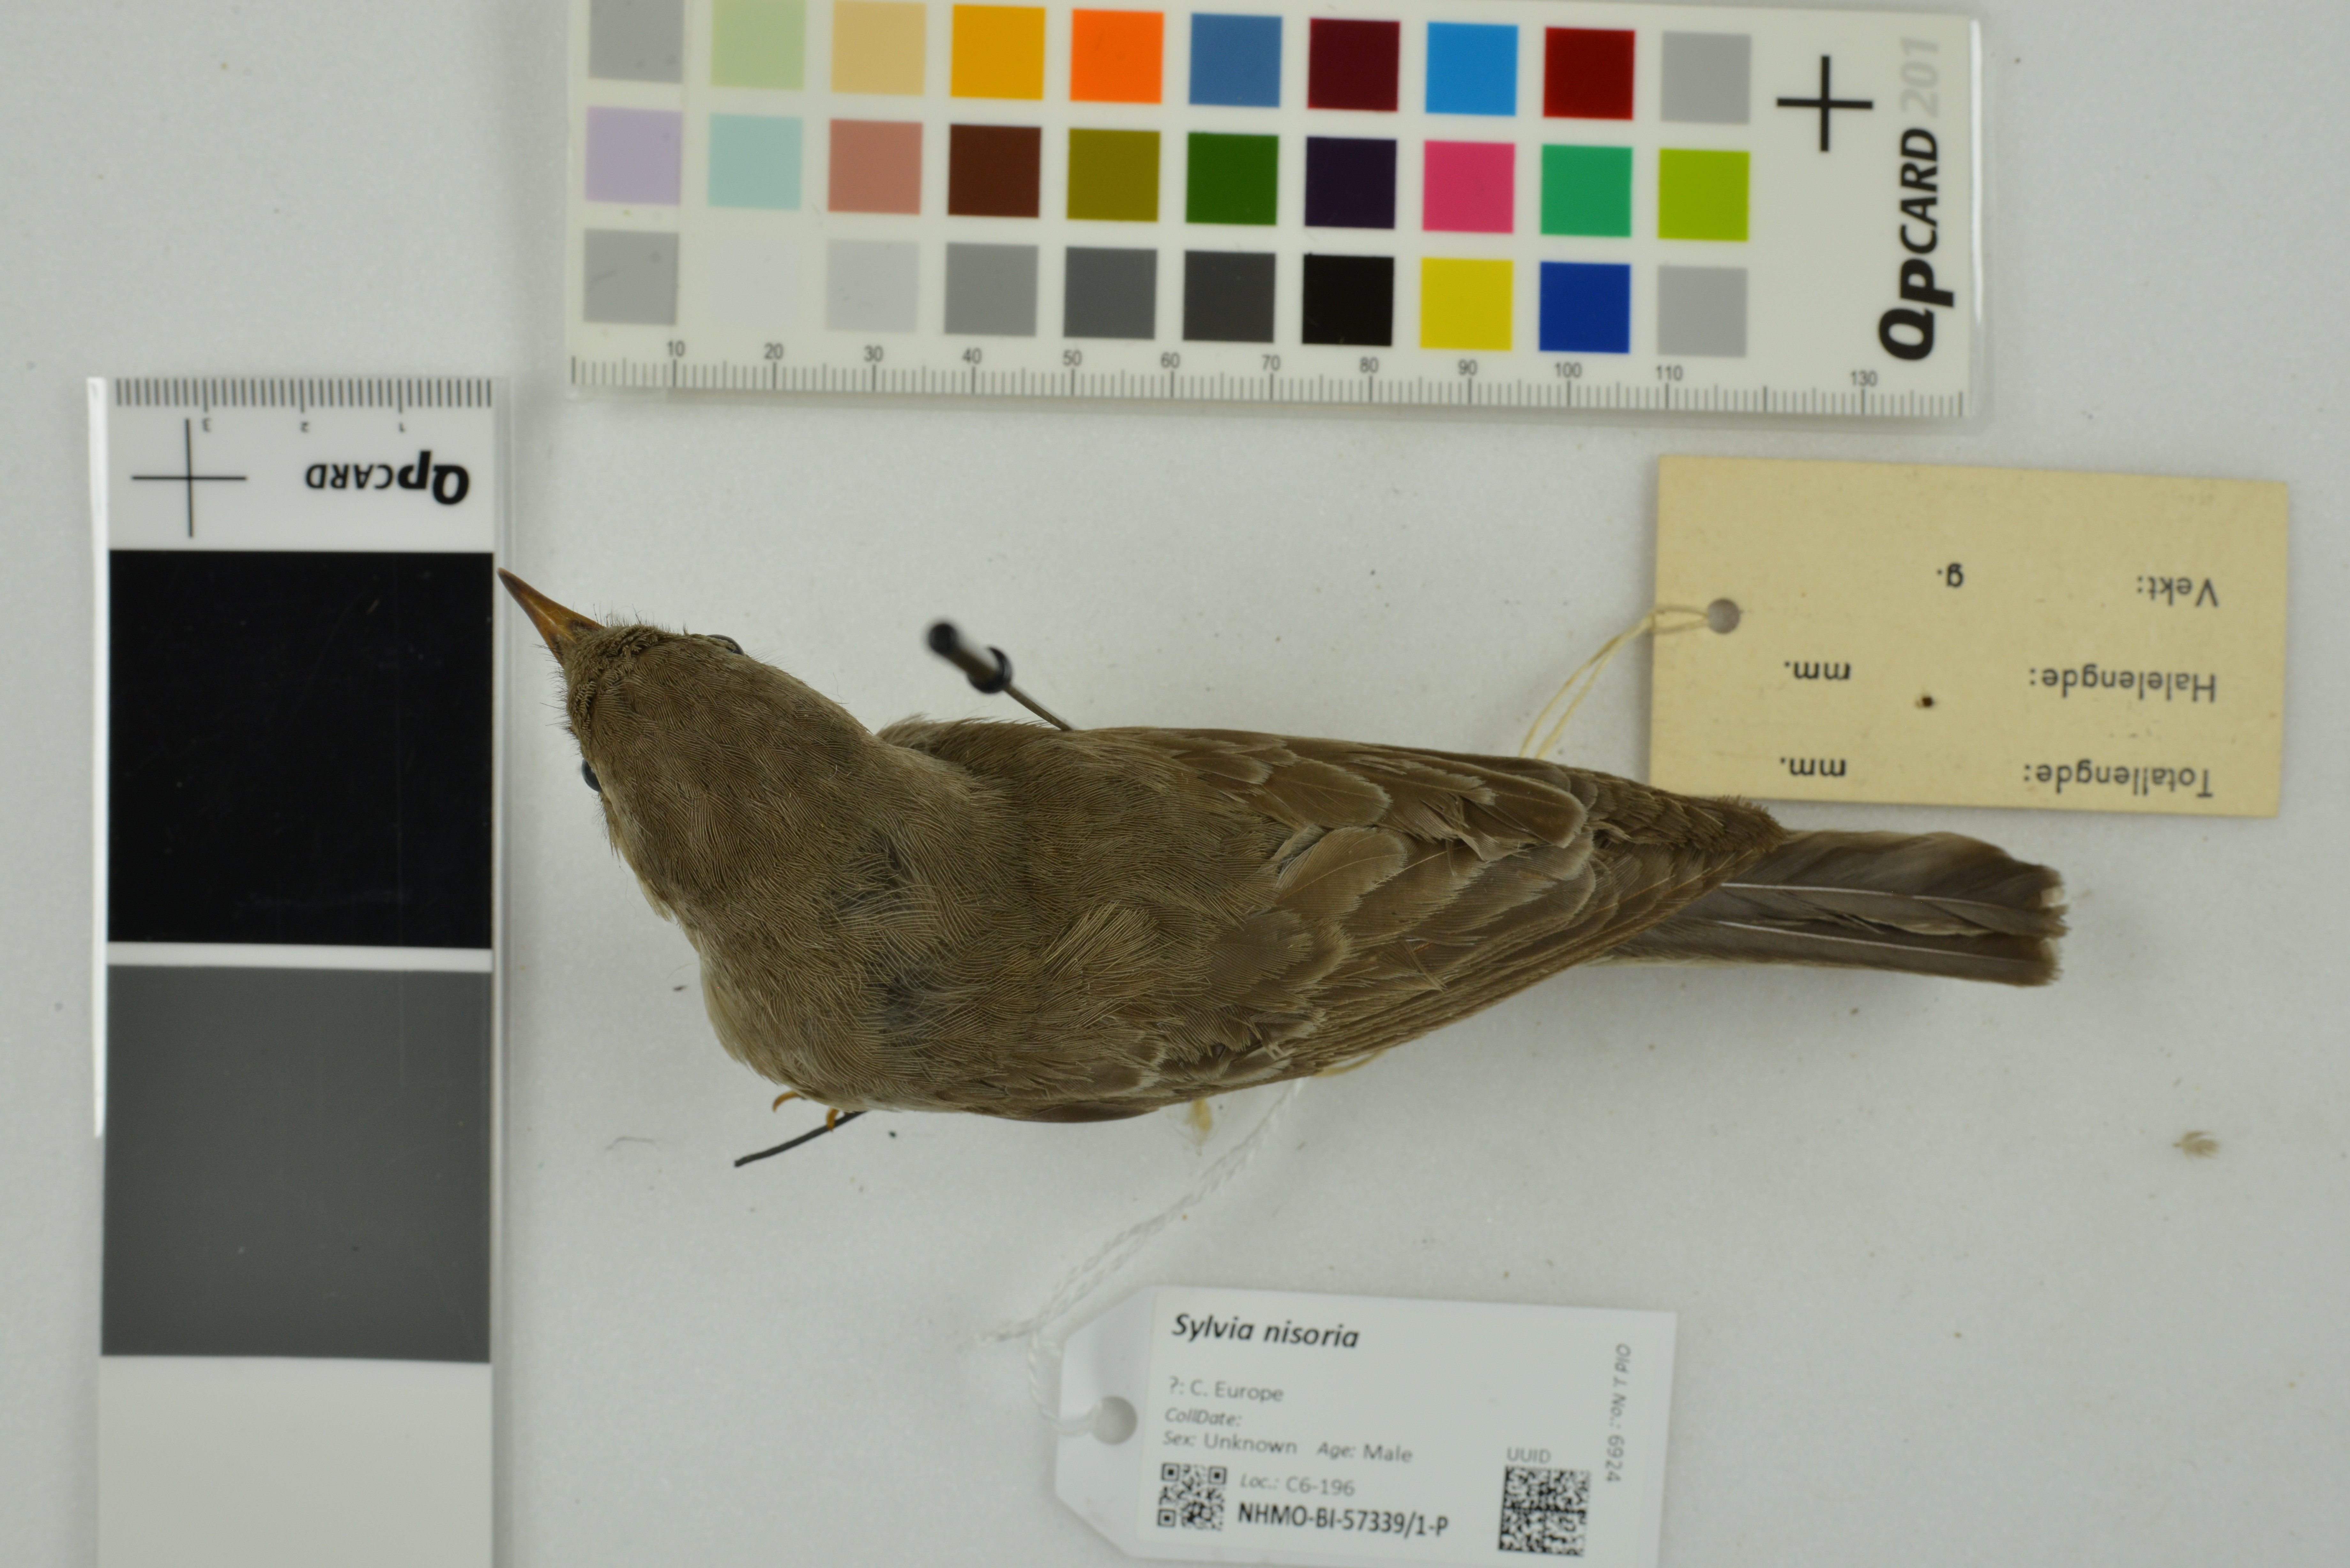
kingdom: Animalia
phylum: Chordata
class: Aves
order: Passeriformes
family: Sylviidae
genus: Sylvia
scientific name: Sylvia nisoria
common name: Barred warbler
